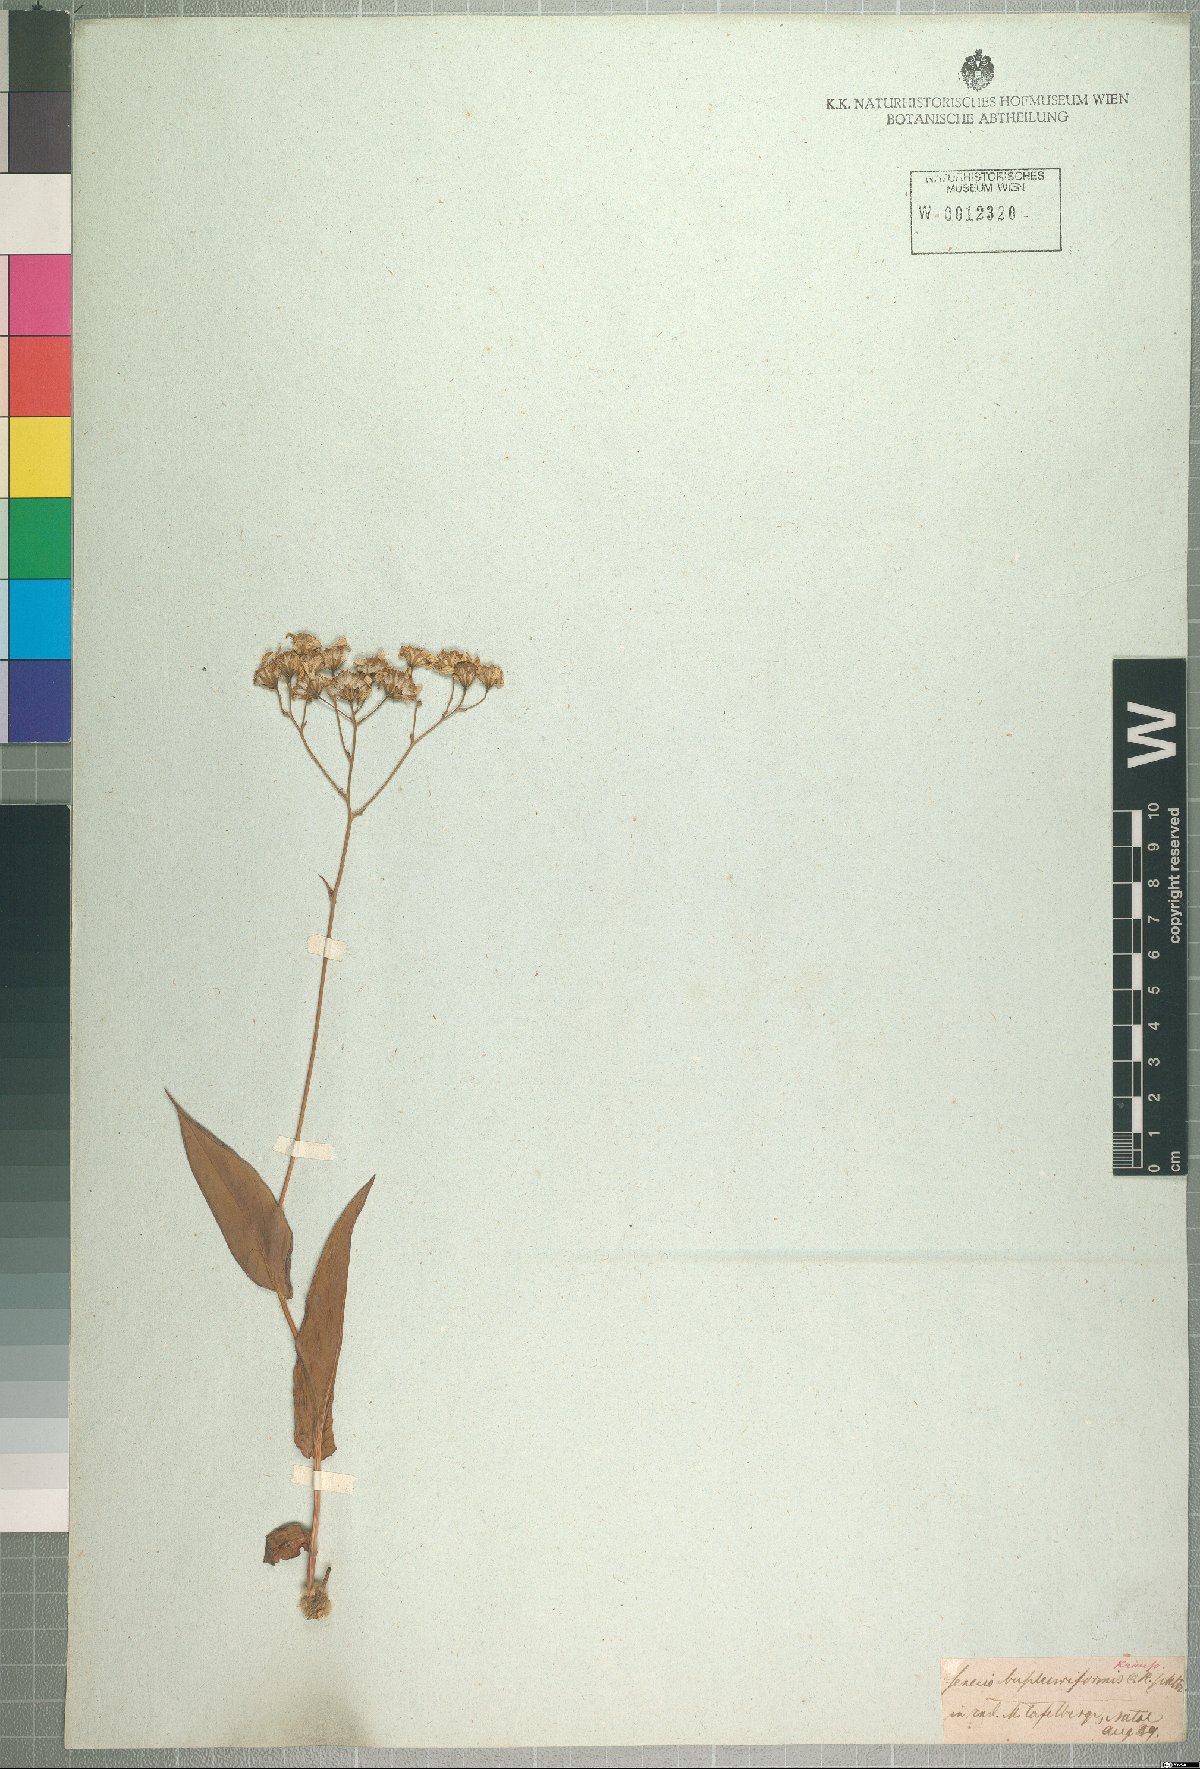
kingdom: Plantae
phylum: Tracheophyta
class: Magnoliopsida
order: Asterales
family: Asteraceae
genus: Senecio
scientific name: Senecio glaberrimus
